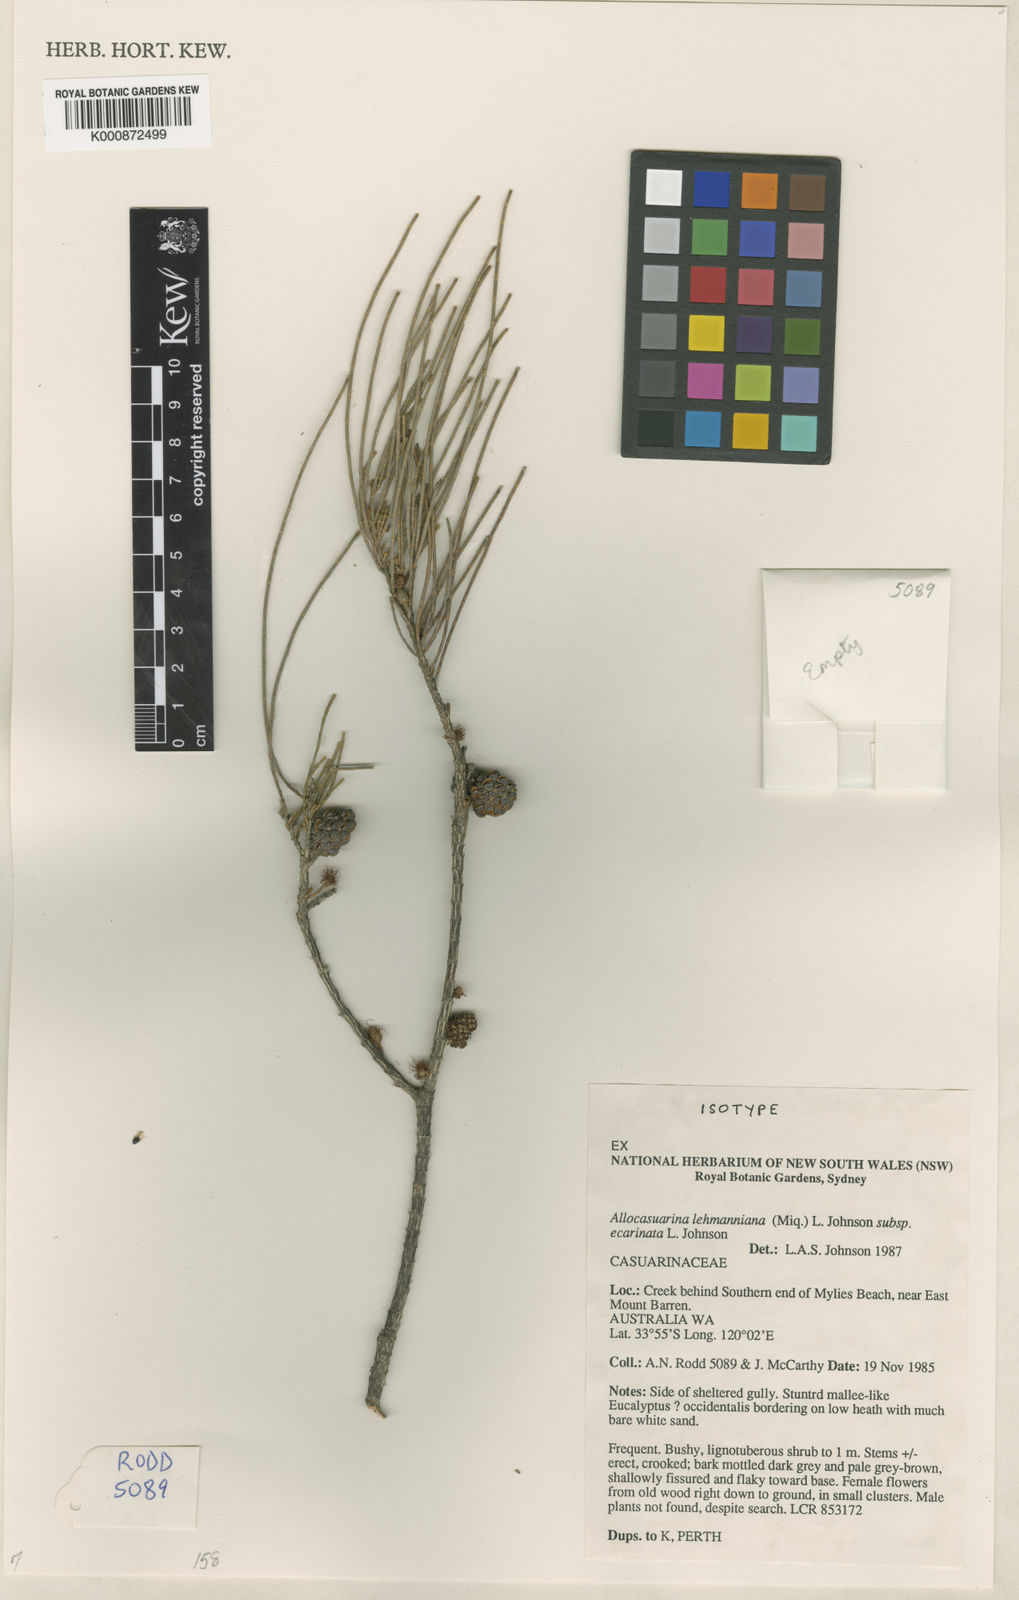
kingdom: Plantae
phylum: Tracheophyta
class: Magnoliopsida
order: Fagales
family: Casuarinaceae
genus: Allocasuarina
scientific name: Allocasuarina lehmanniana
